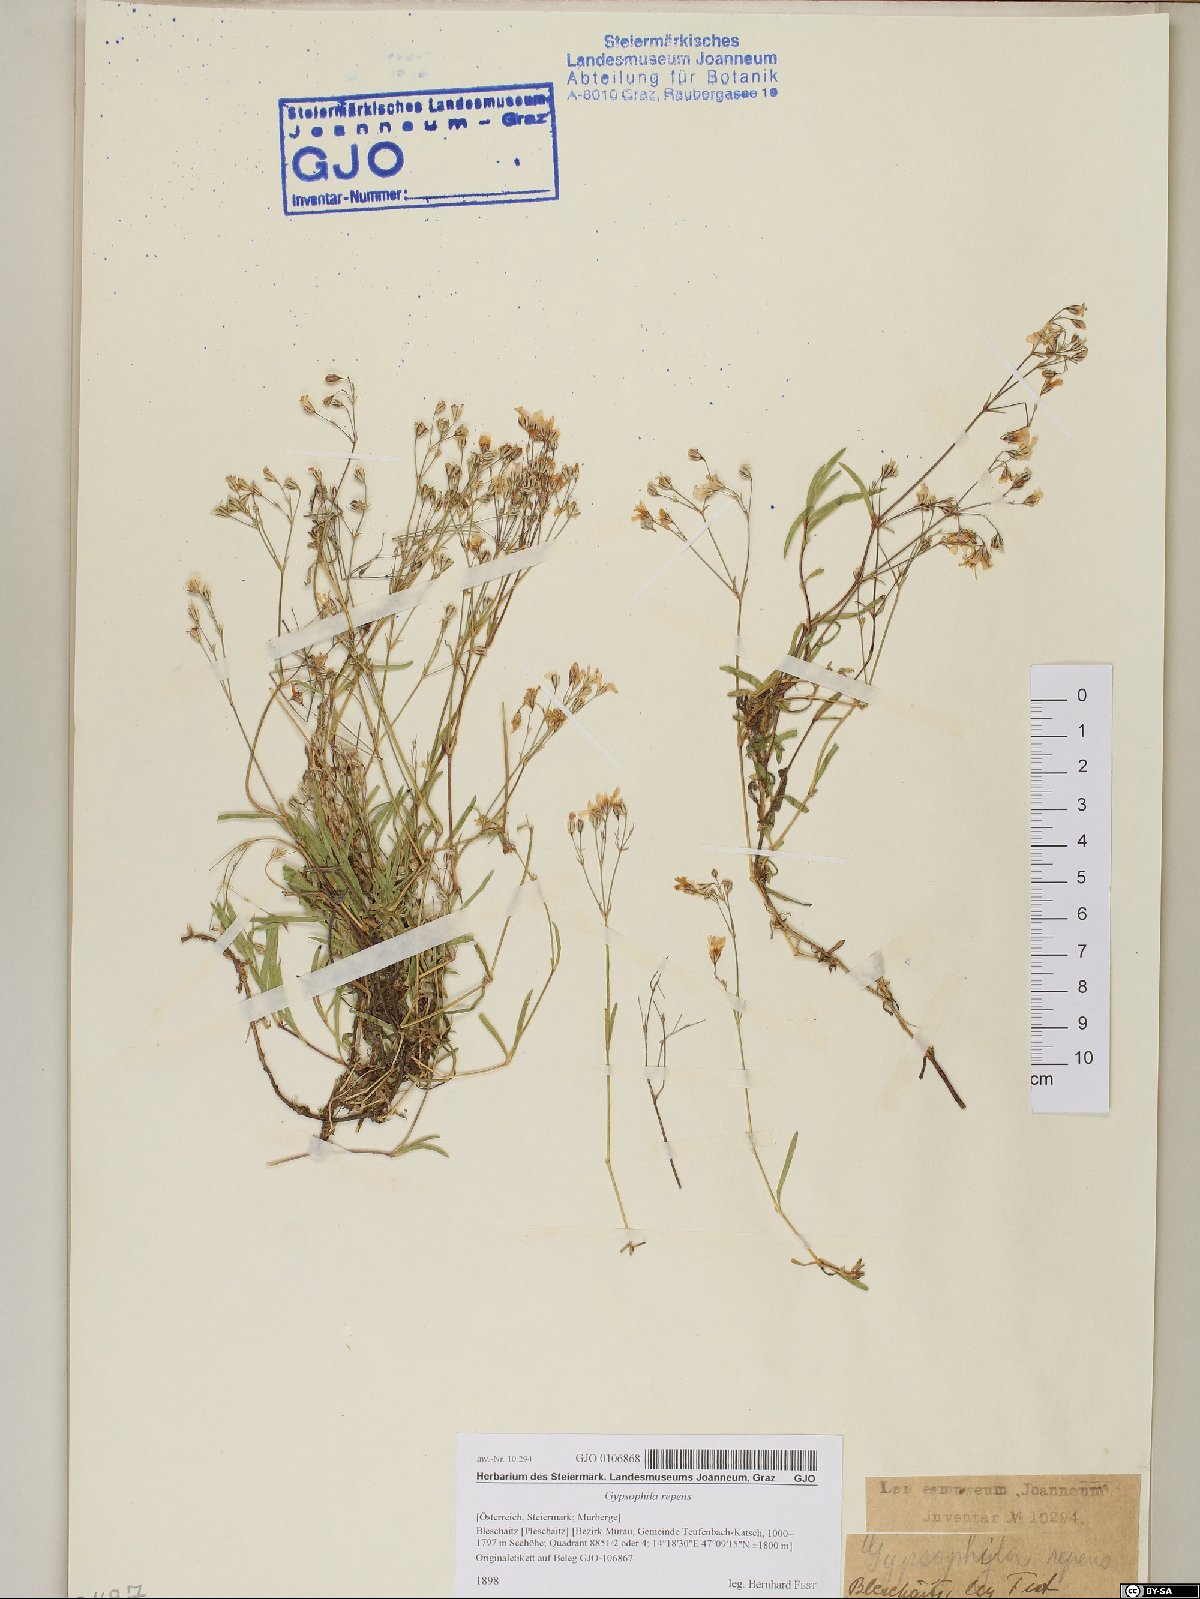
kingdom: Plantae
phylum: Tracheophyta
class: Magnoliopsida
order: Caryophyllales
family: Caryophyllaceae
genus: Gypsophila
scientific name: Gypsophila repens
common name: Creeping baby's-breath
